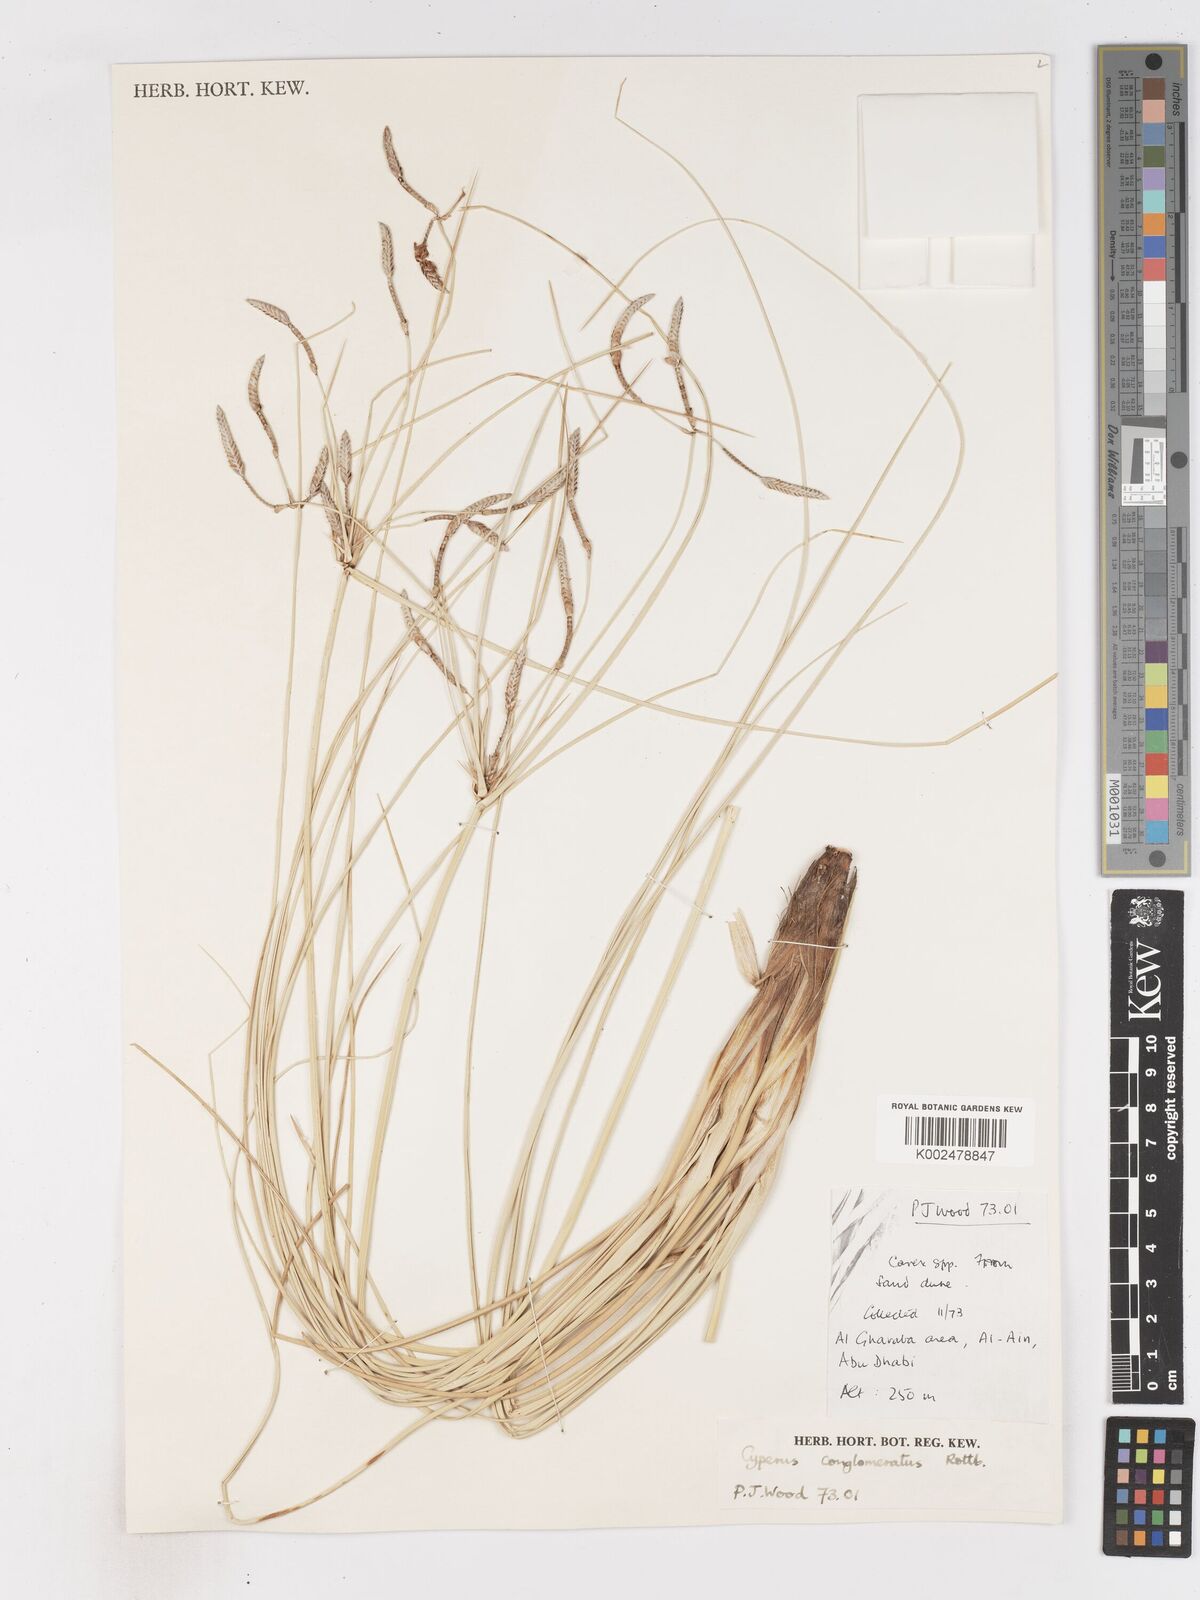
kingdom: Plantae
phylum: Tracheophyta
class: Liliopsida
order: Poales
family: Cyperaceae
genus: Cyperus
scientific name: Cyperus aucheri
